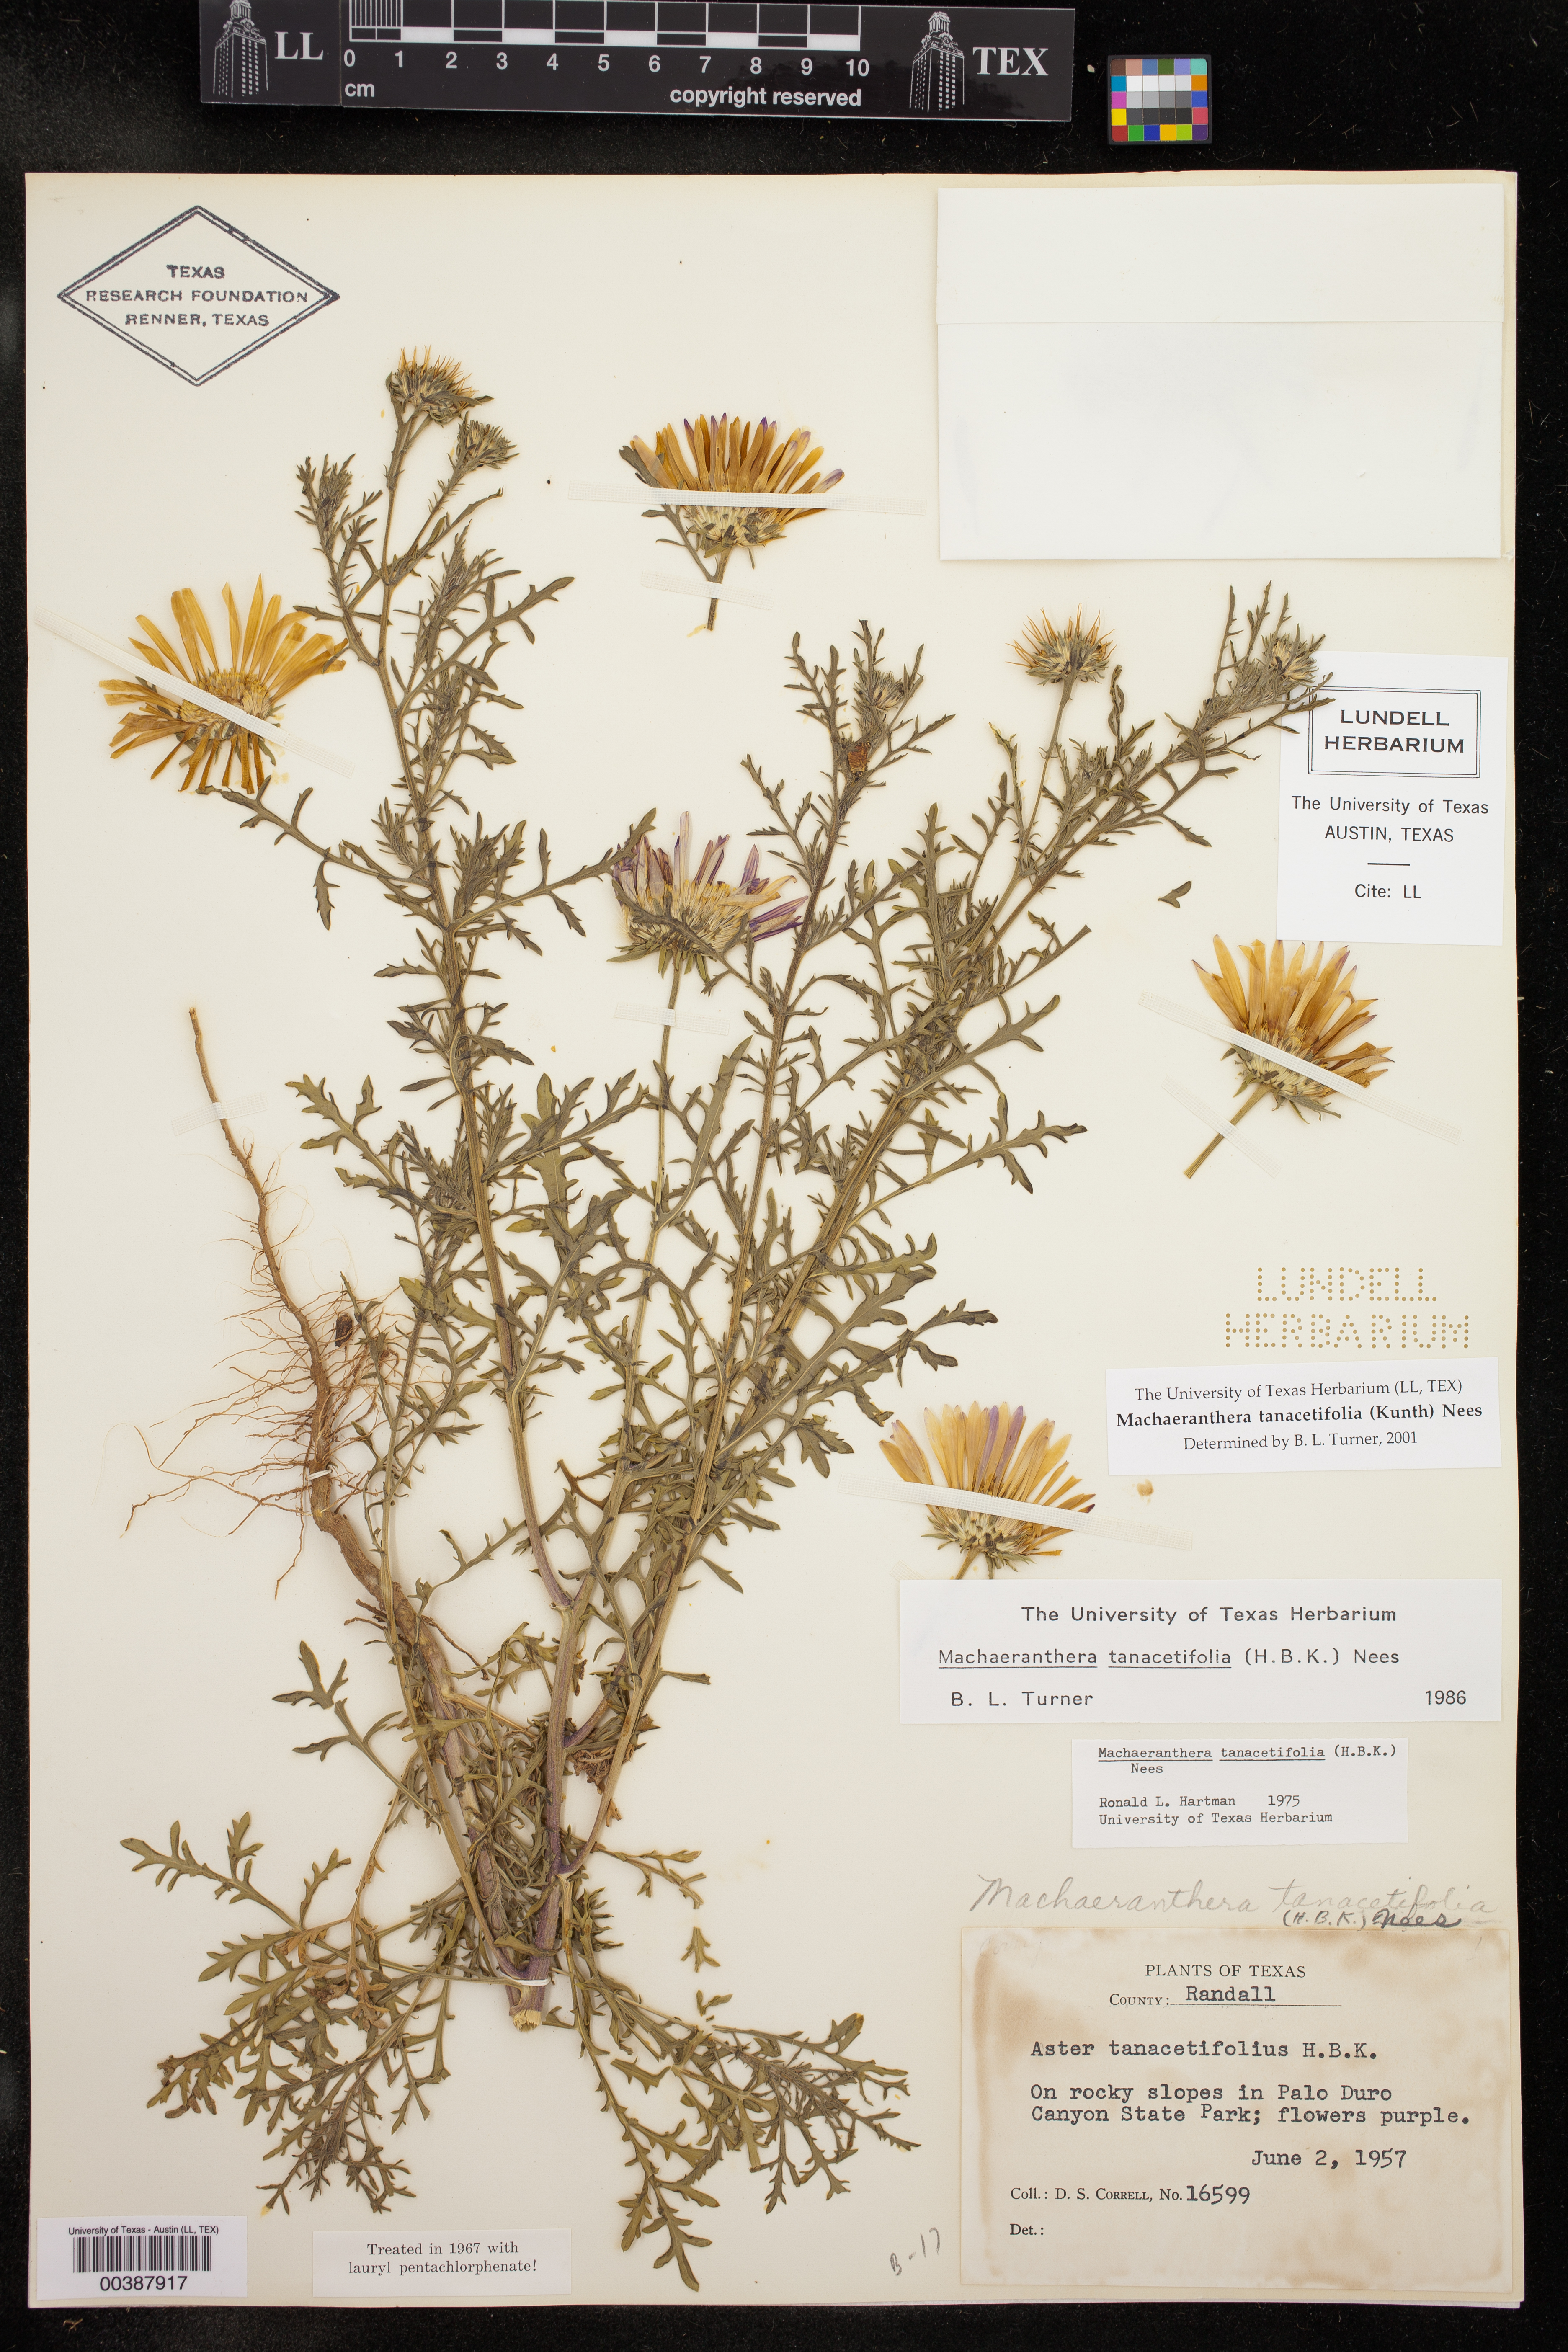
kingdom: Plantae
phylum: Tracheophyta
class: Magnoliopsida
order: Asterales
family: Asteraceae
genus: Machaeranthera
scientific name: Machaeranthera tanacetifolia
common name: Tansy-aster
